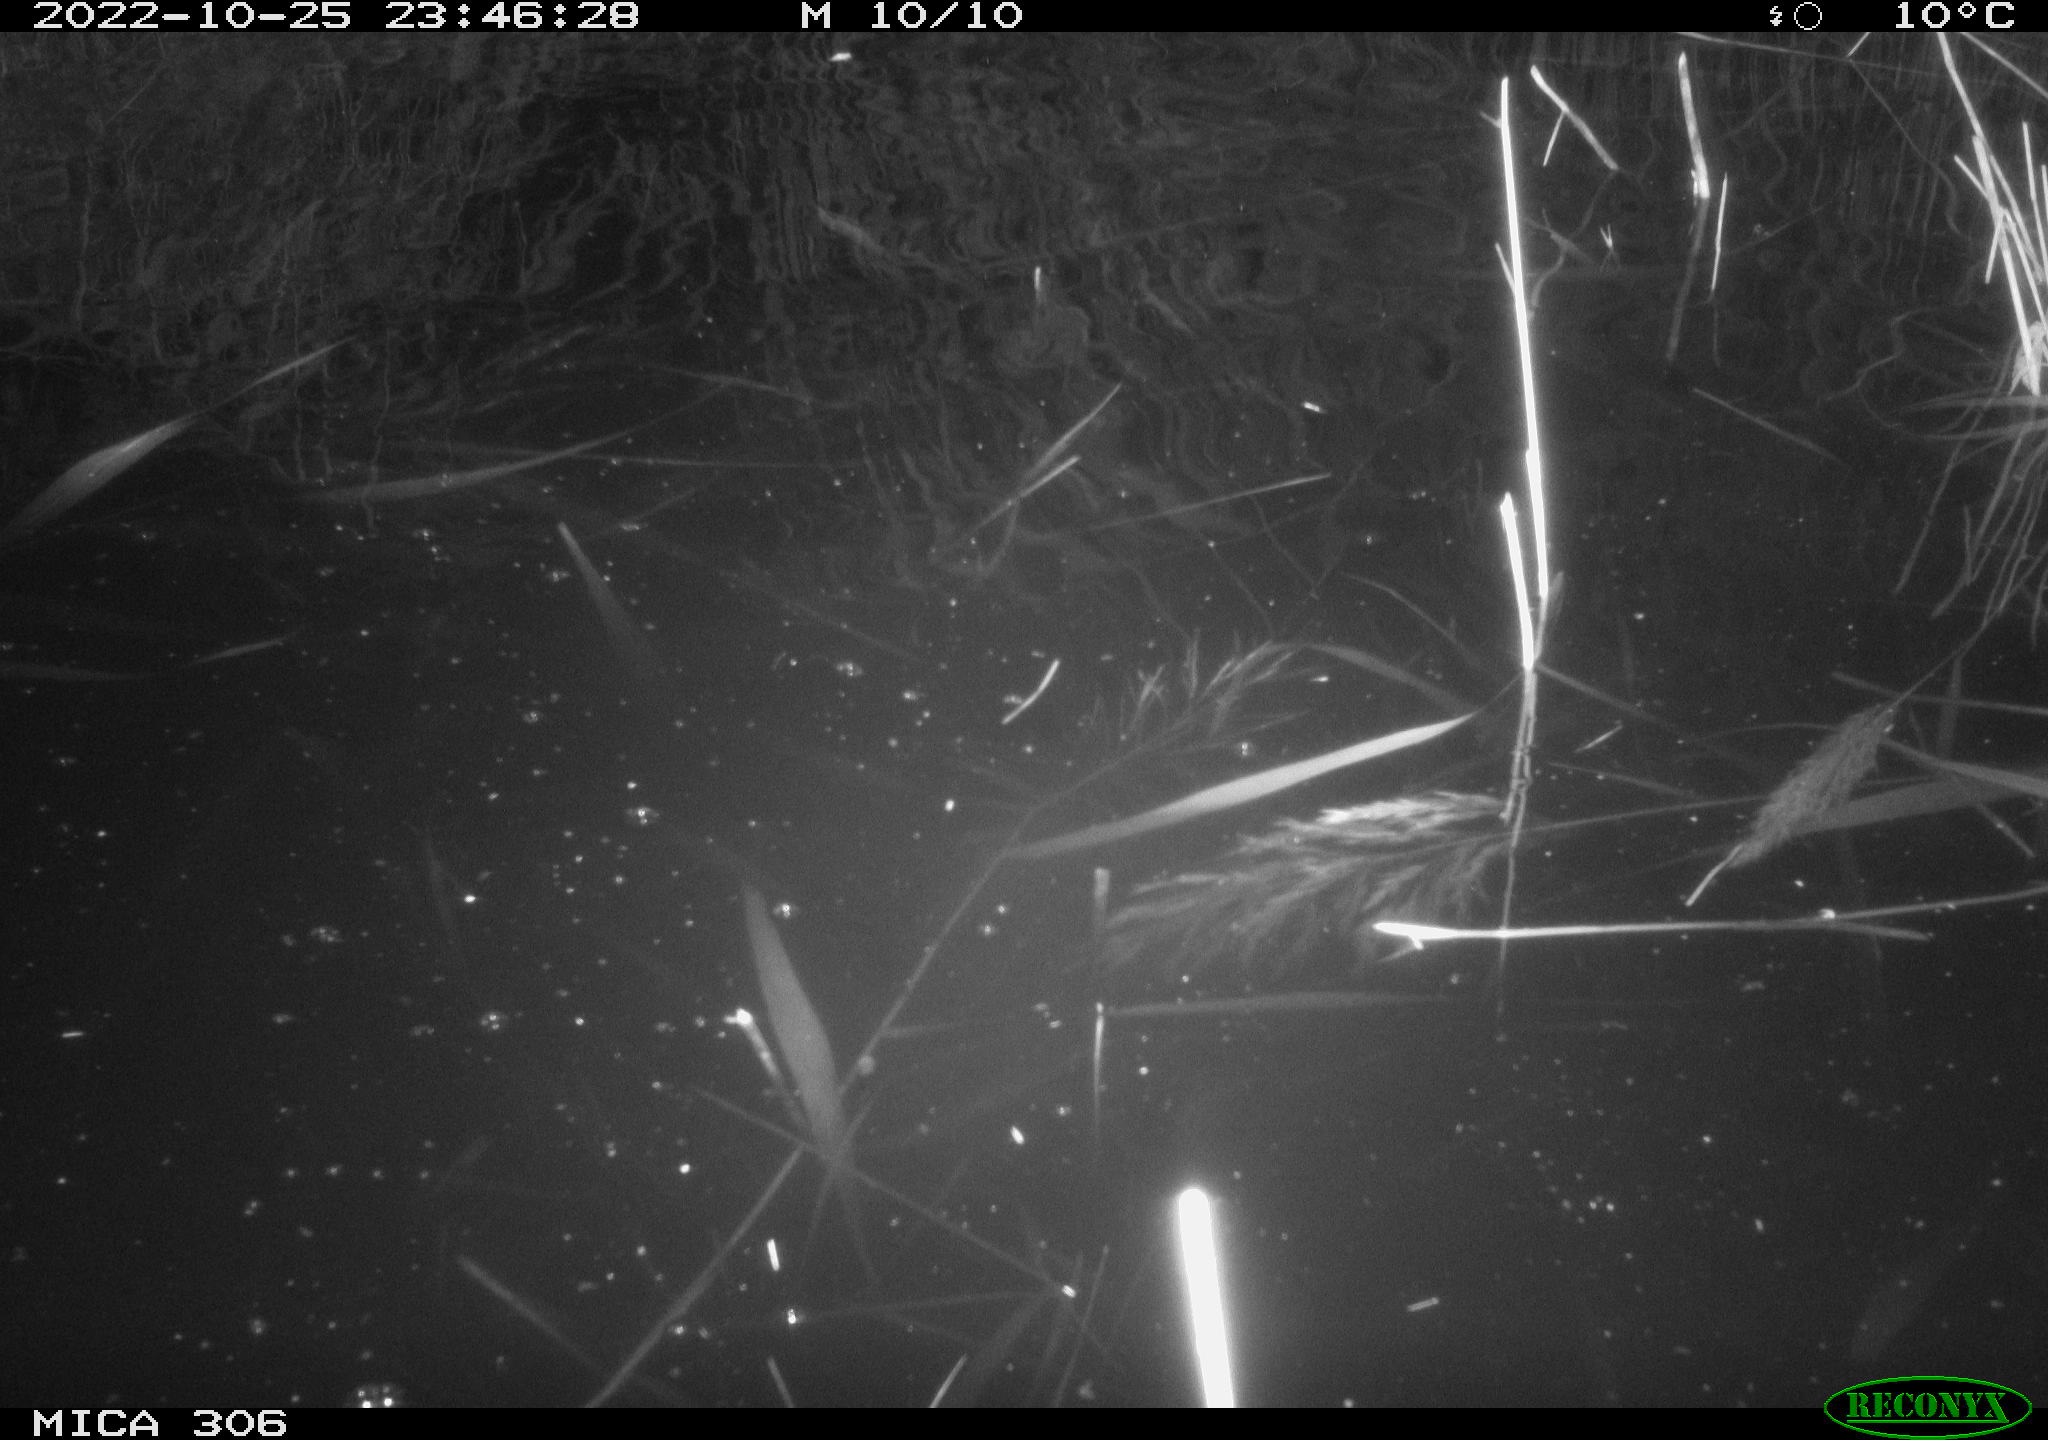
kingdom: Animalia
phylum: Chordata
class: Mammalia
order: Rodentia
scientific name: Rodentia
